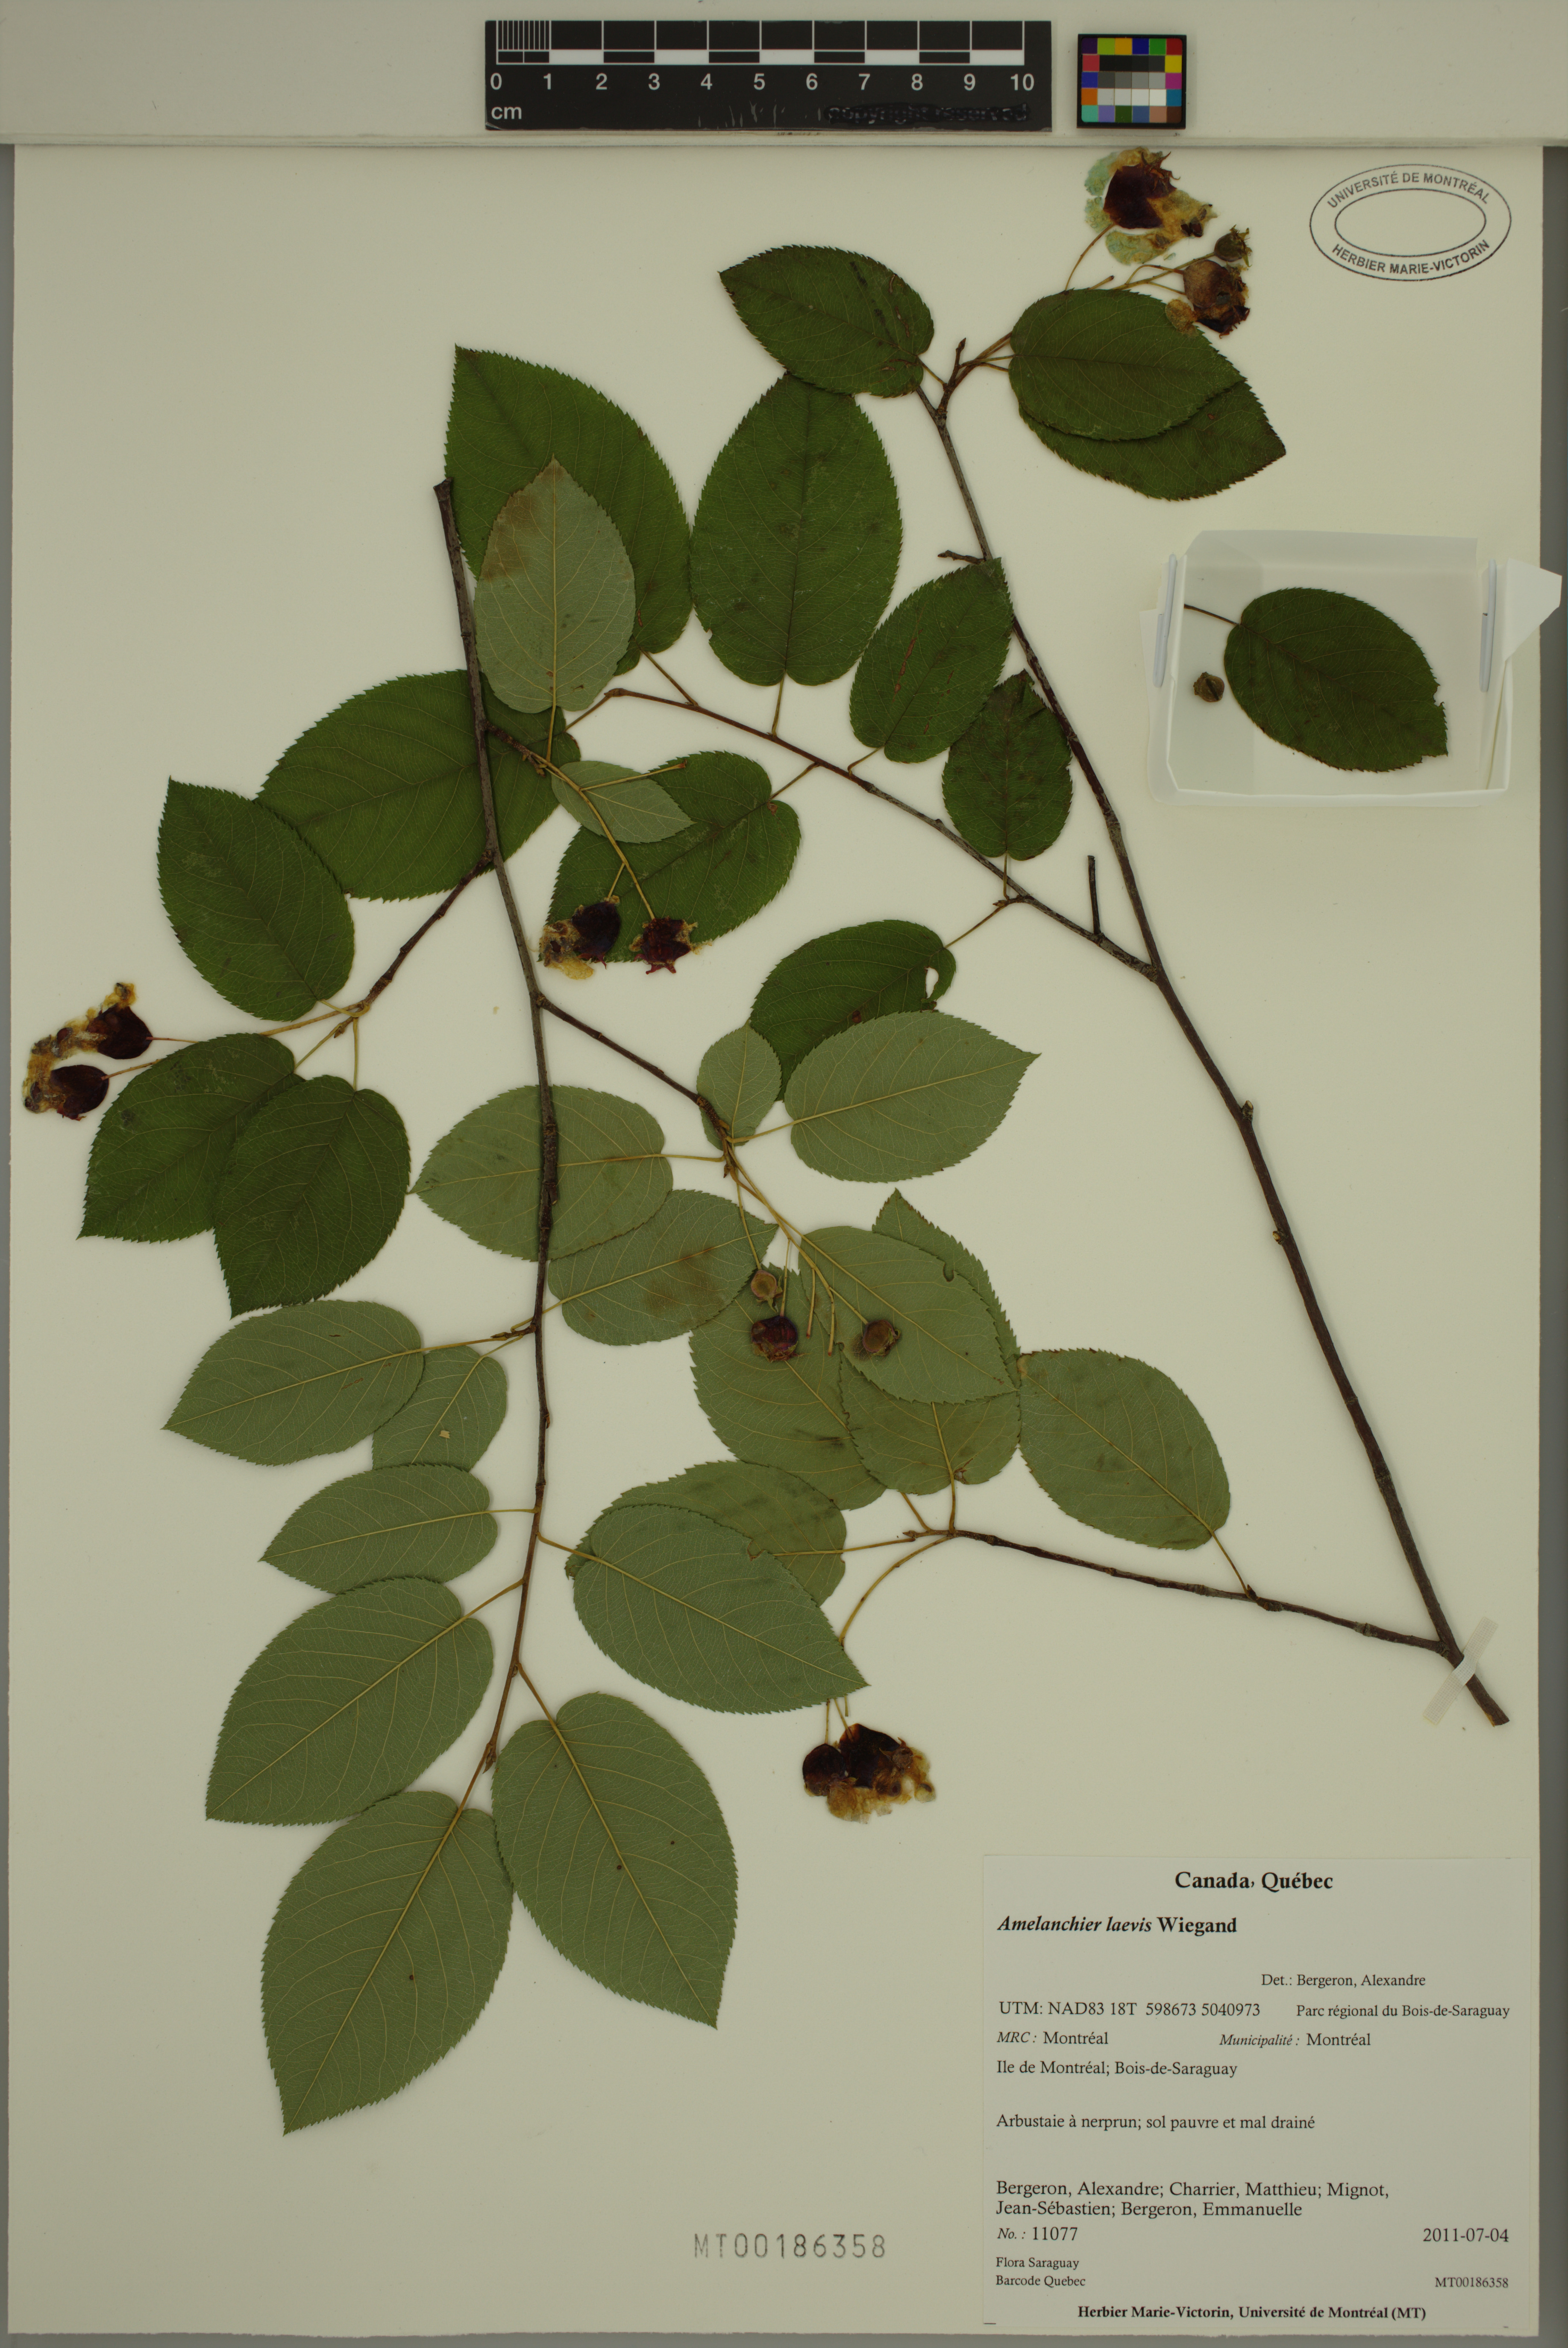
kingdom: Plantae
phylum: Tracheophyta
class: Magnoliopsida
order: Rosales
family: Rosaceae
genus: Amelanchier
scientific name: Amelanchier laevis
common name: Allegheny serviceberry
